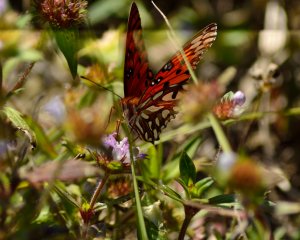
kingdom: Animalia
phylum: Arthropoda
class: Insecta
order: Lepidoptera
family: Nymphalidae
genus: Dione
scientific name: Dione vanillae
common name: Gulf Fritillary
